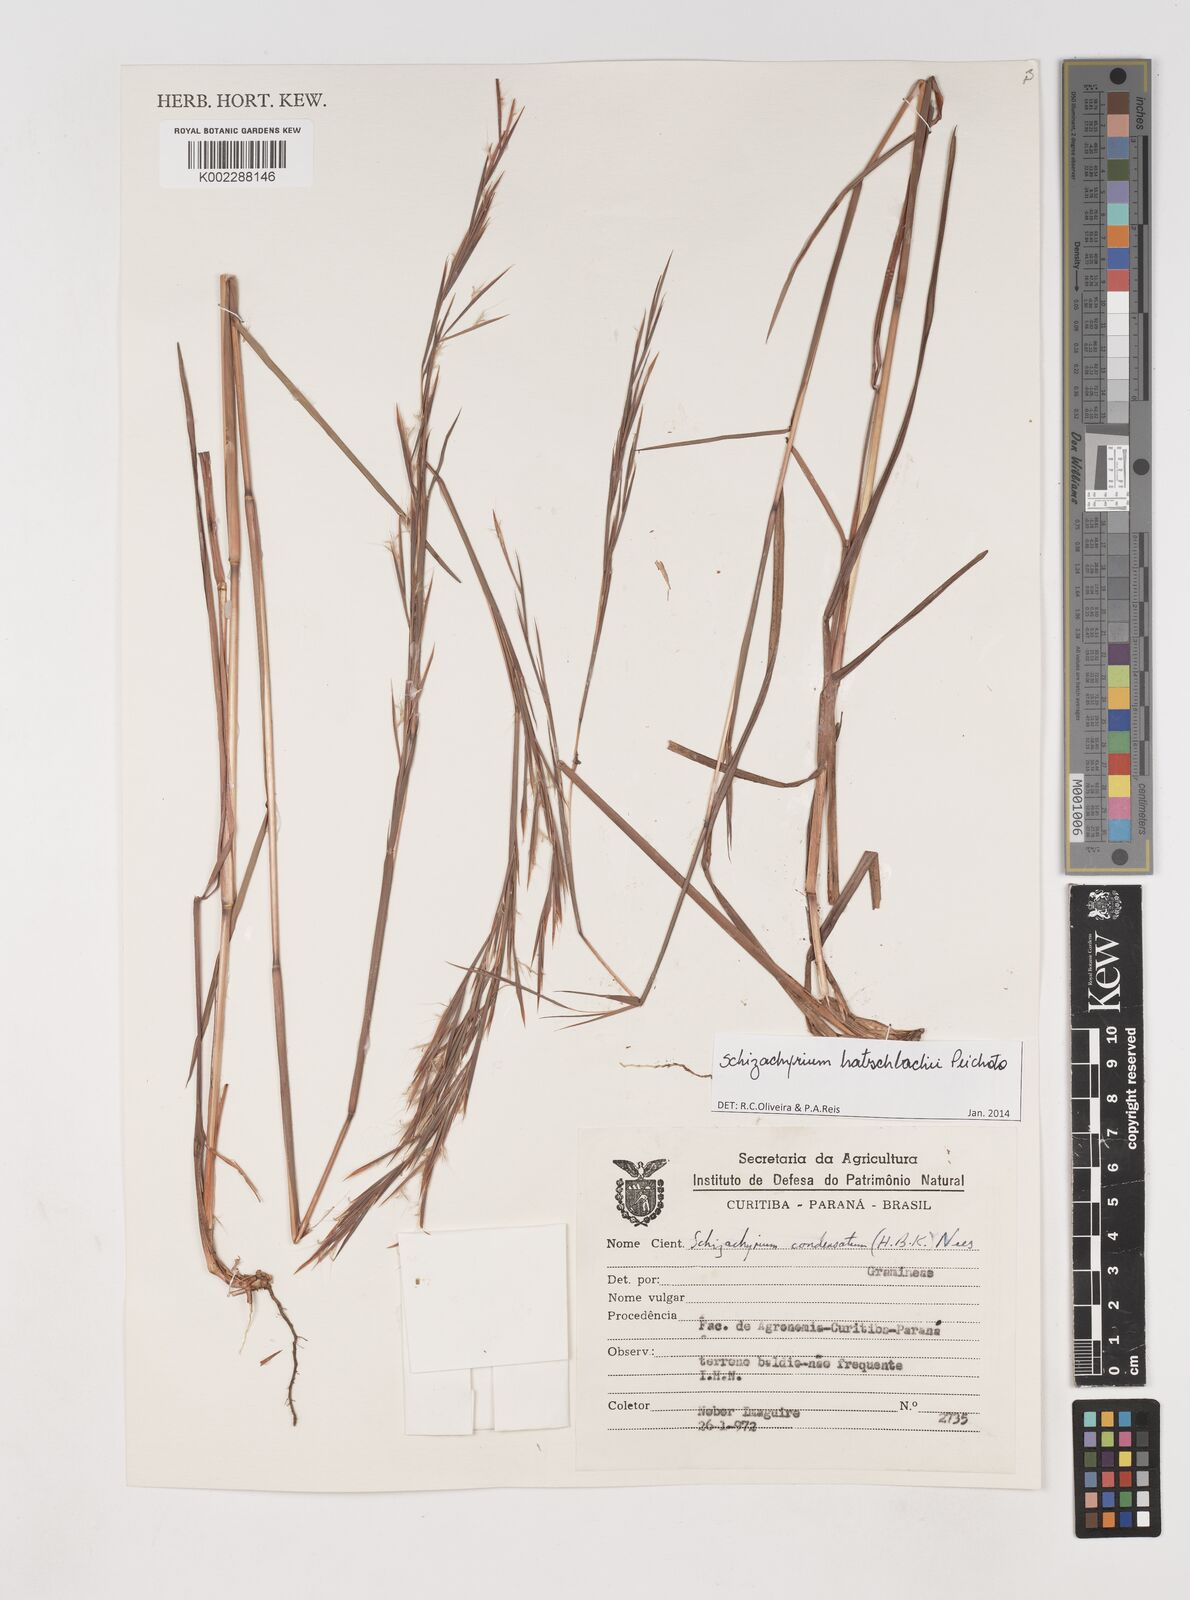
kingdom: Plantae
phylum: Tracheophyta
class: Liliopsida
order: Poales
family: Poaceae
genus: Schizachyrium
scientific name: Schizachyrium hatschbachii
